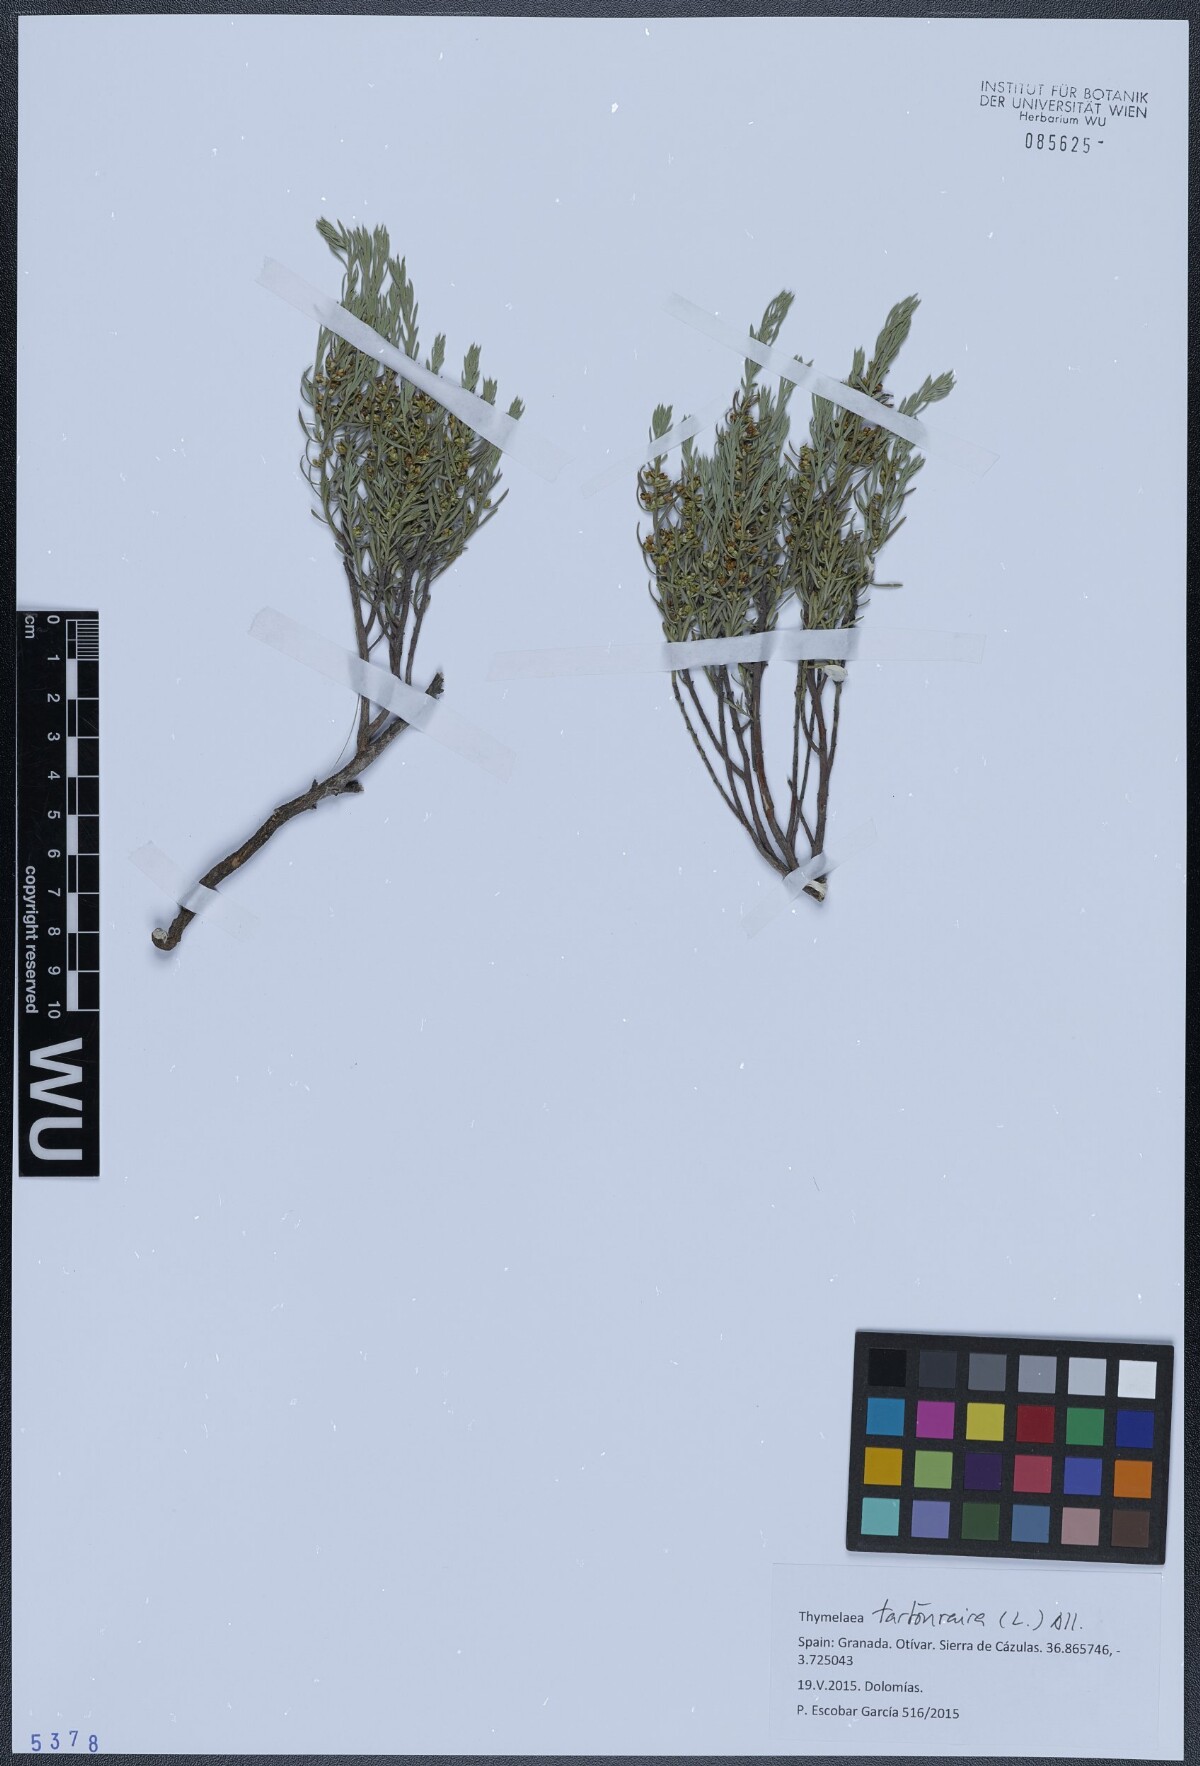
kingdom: Plantae
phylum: Tracheophyta
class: Magnoliopsida
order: Malvales
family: Thymelaeaceae
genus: Thymelaea
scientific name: Thymelaea tartonraira
